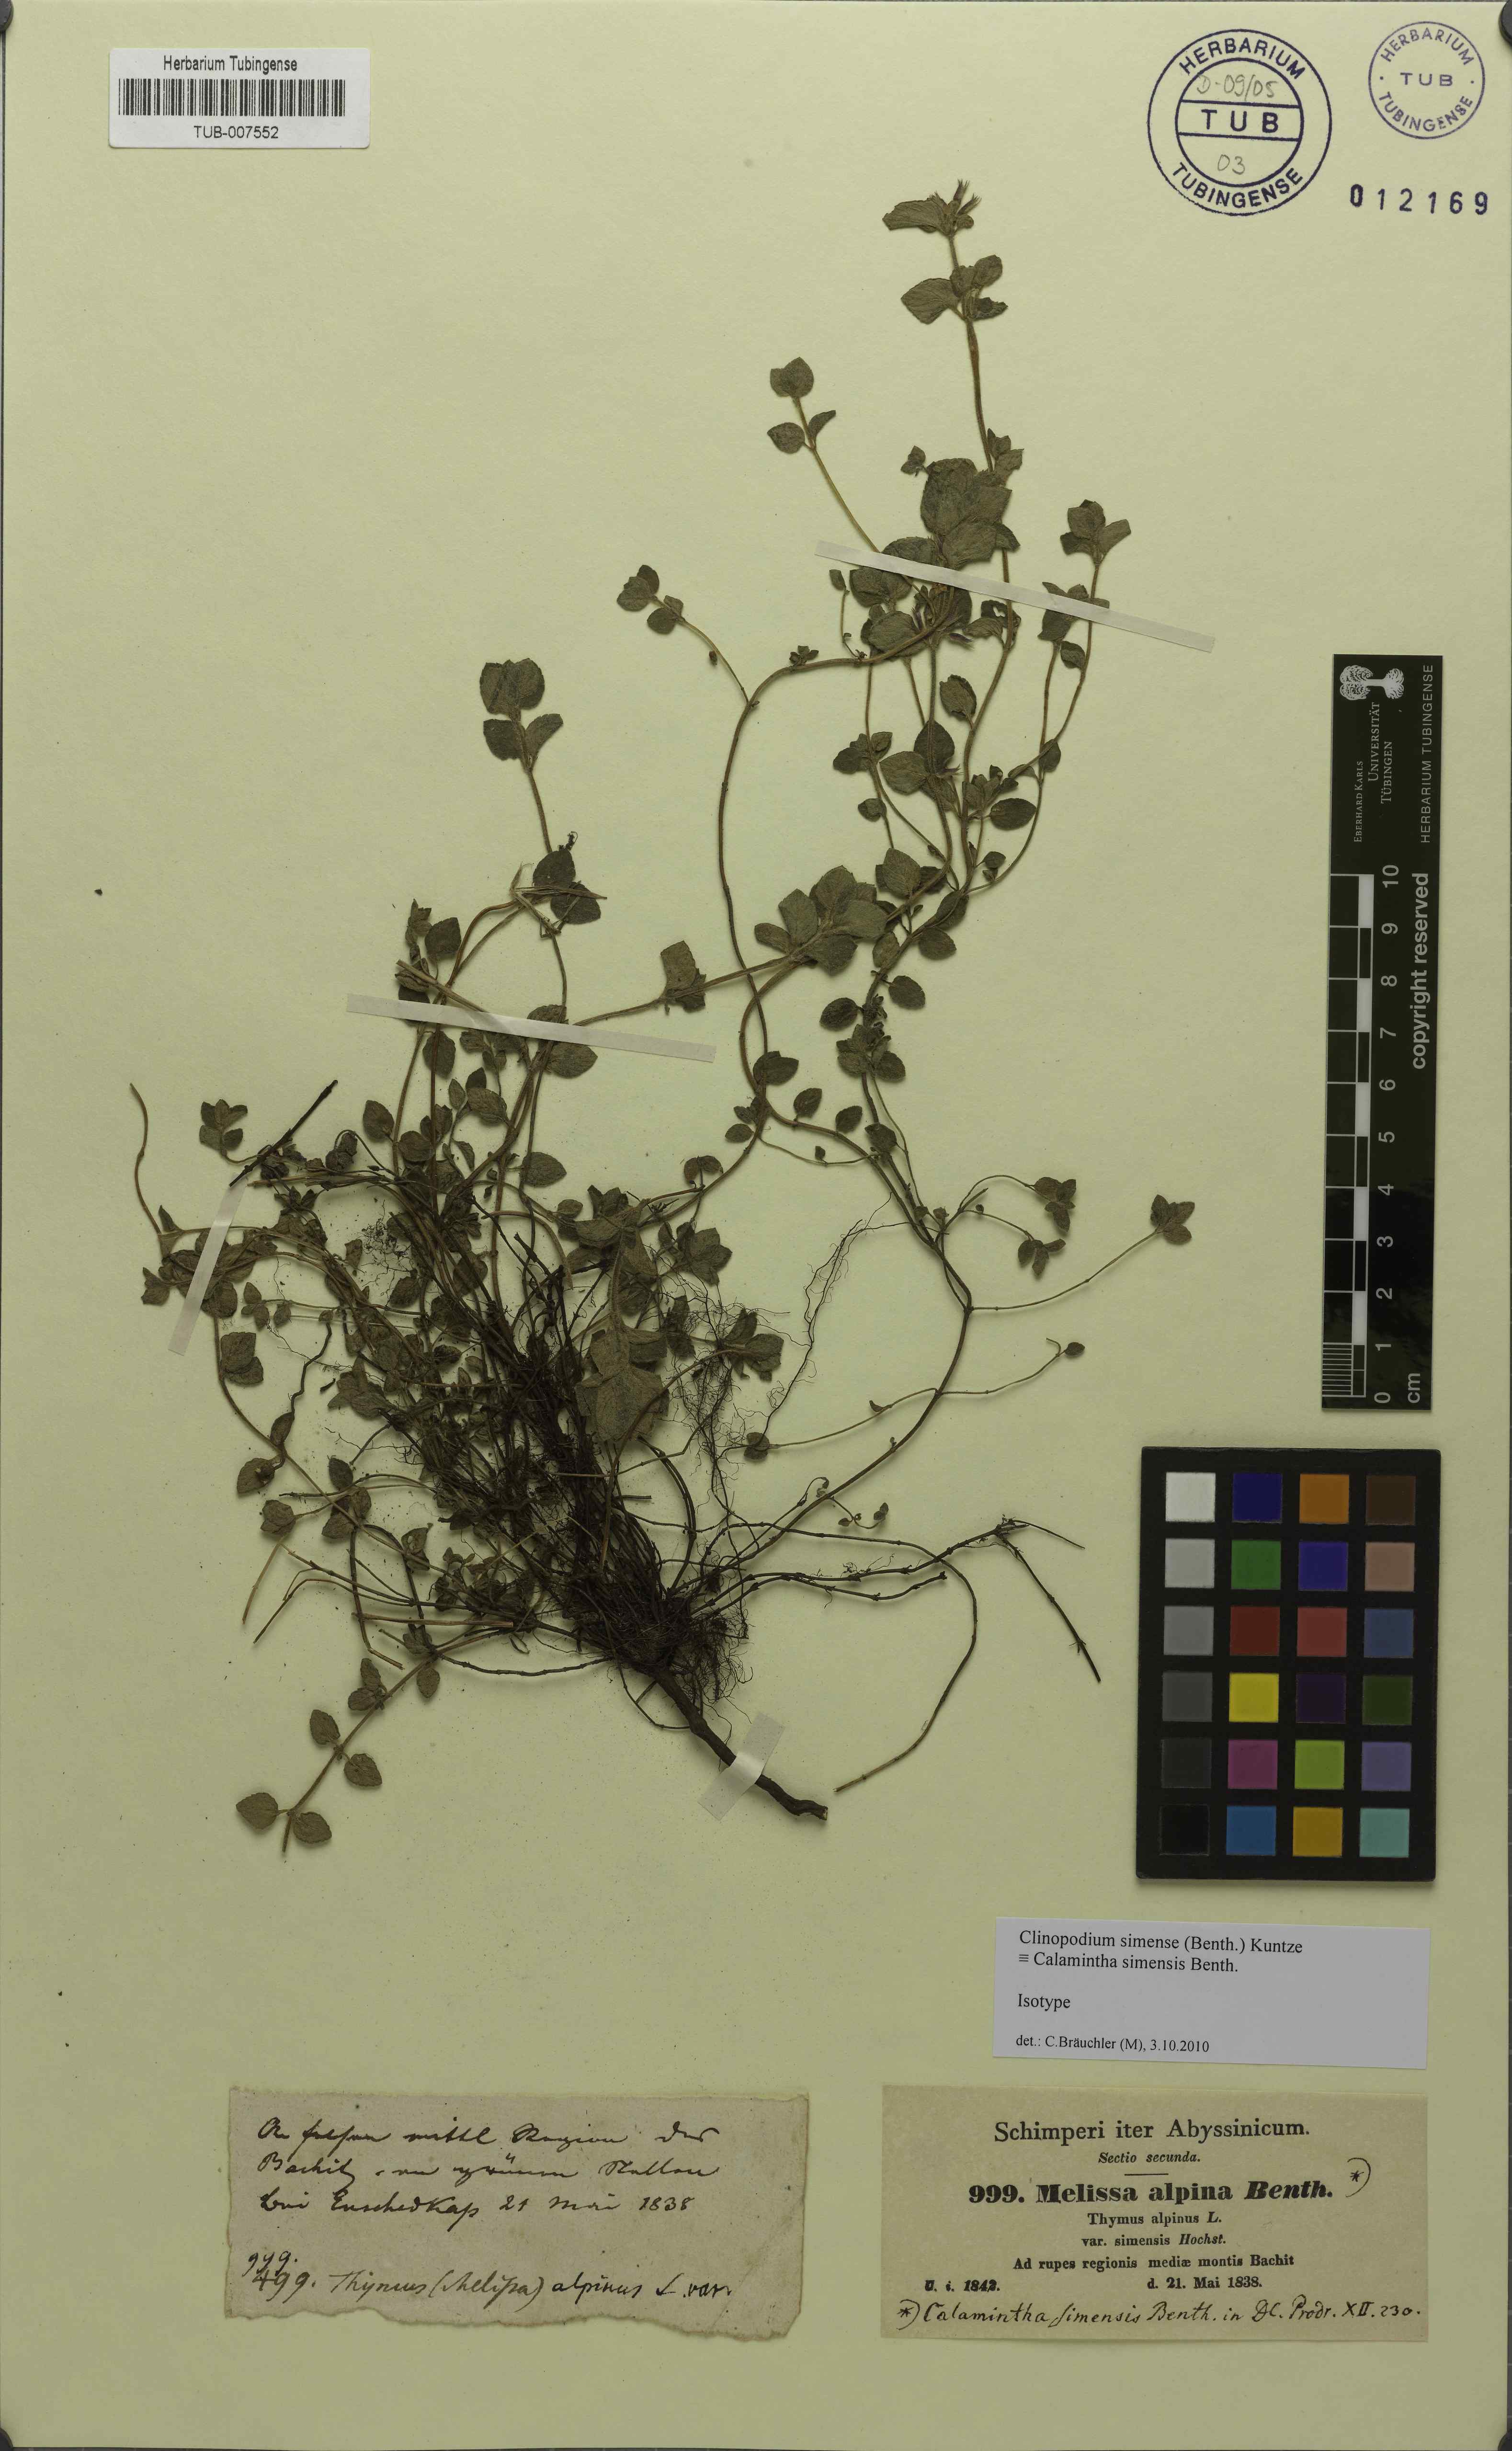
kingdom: Plantae
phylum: Tracheophyta
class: Magnoliopsida
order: Lamiales
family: Lamiaceae
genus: Clinopodium
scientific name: Clinopodium simense
